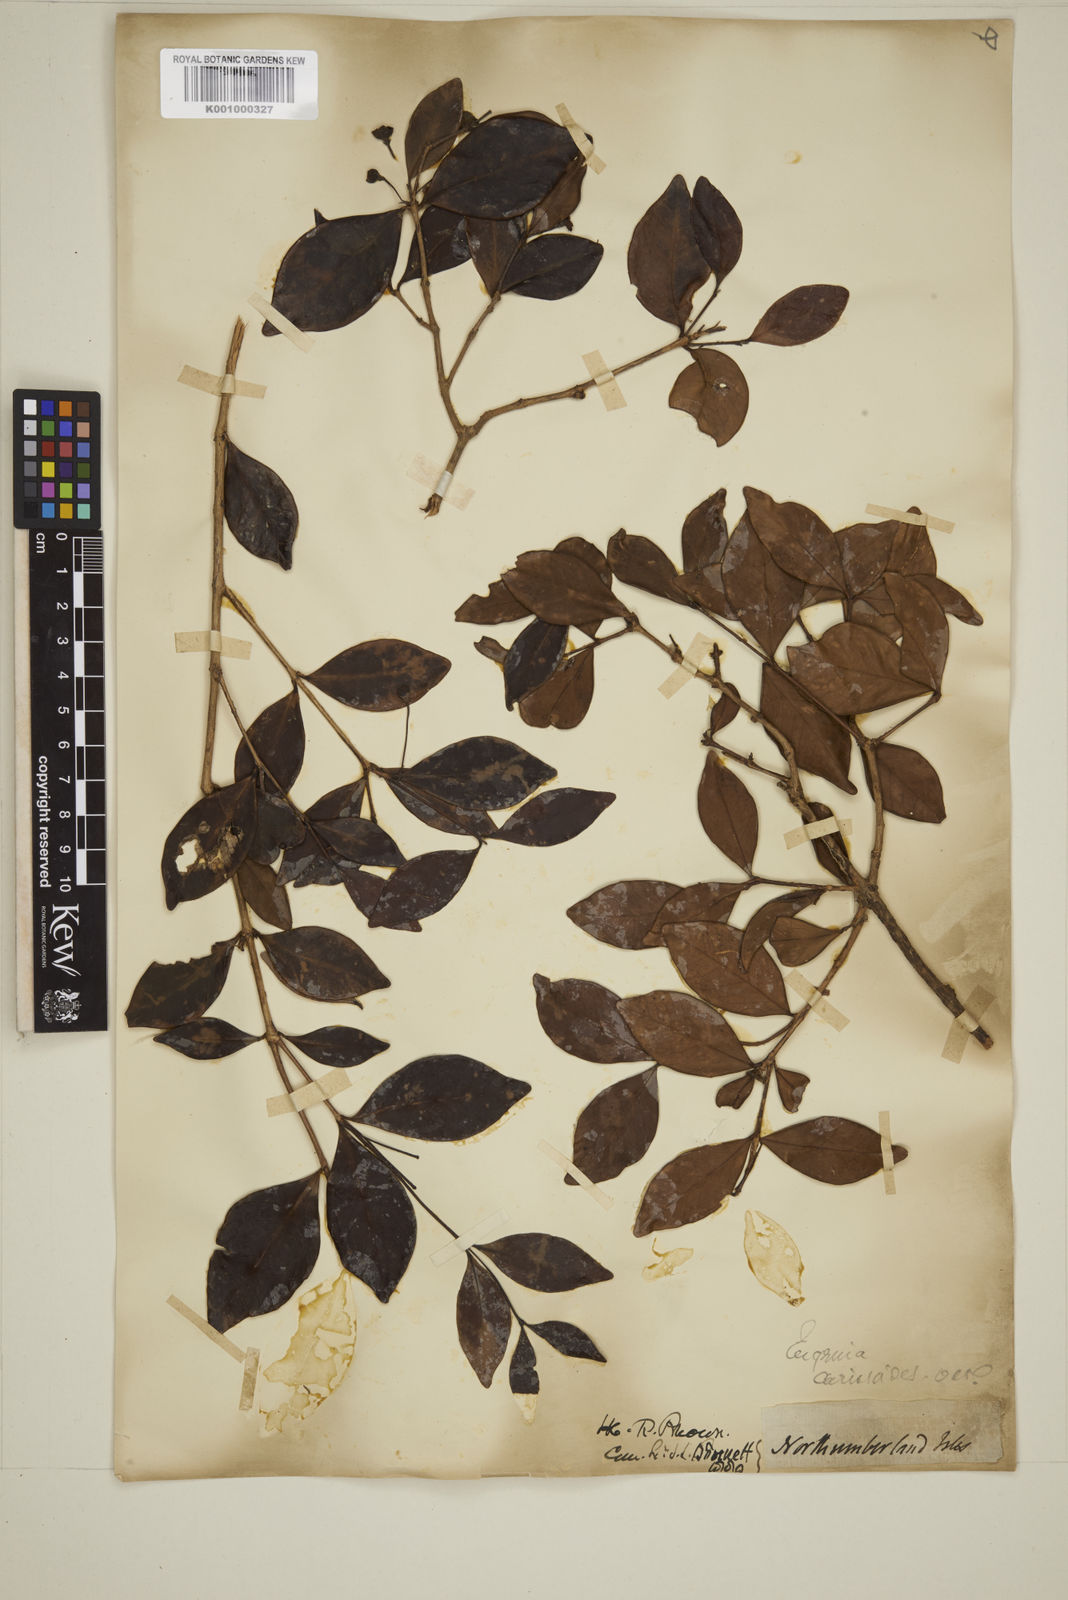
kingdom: Plantae
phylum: Tracheophyta
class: Magnoliopsida
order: Myrtales
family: Myrtaceae
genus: Eugenia
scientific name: Eugenia reinwardtiana
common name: Cedar bay-cherry
